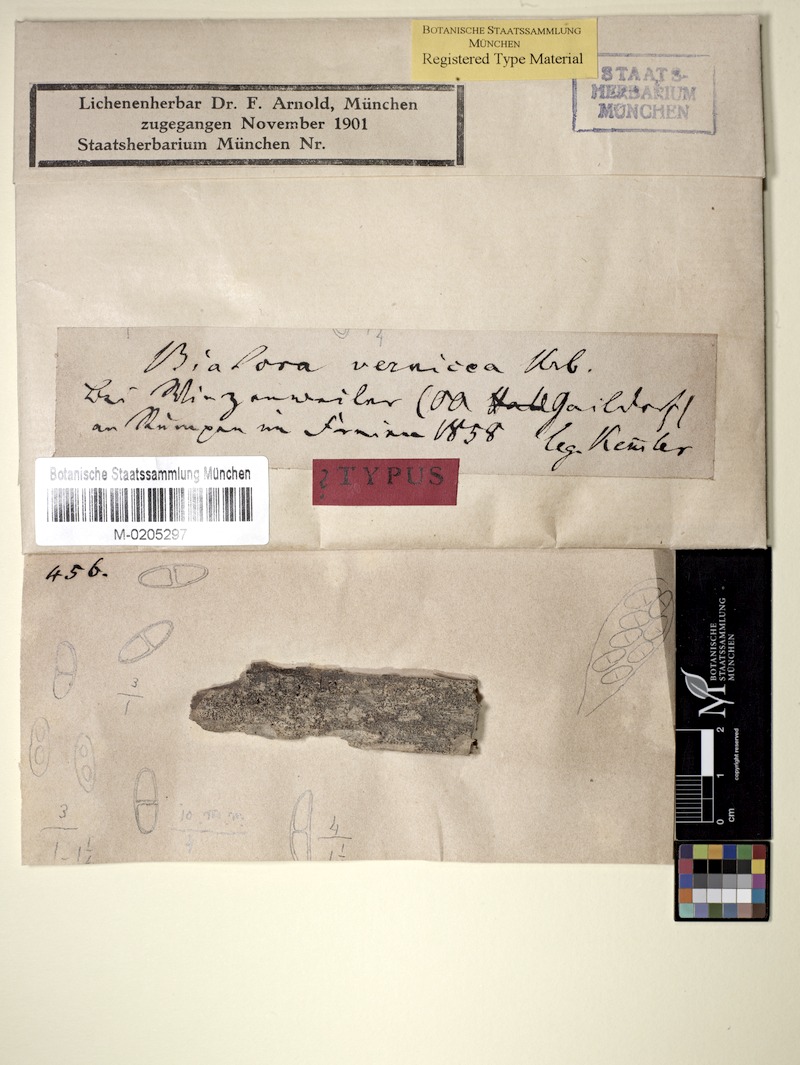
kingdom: Fungi
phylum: Ascomycota
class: Lecanoromycetes
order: Lecanorales
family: Catillariaceae
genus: Catillaria
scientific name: Catillaria vernicea
